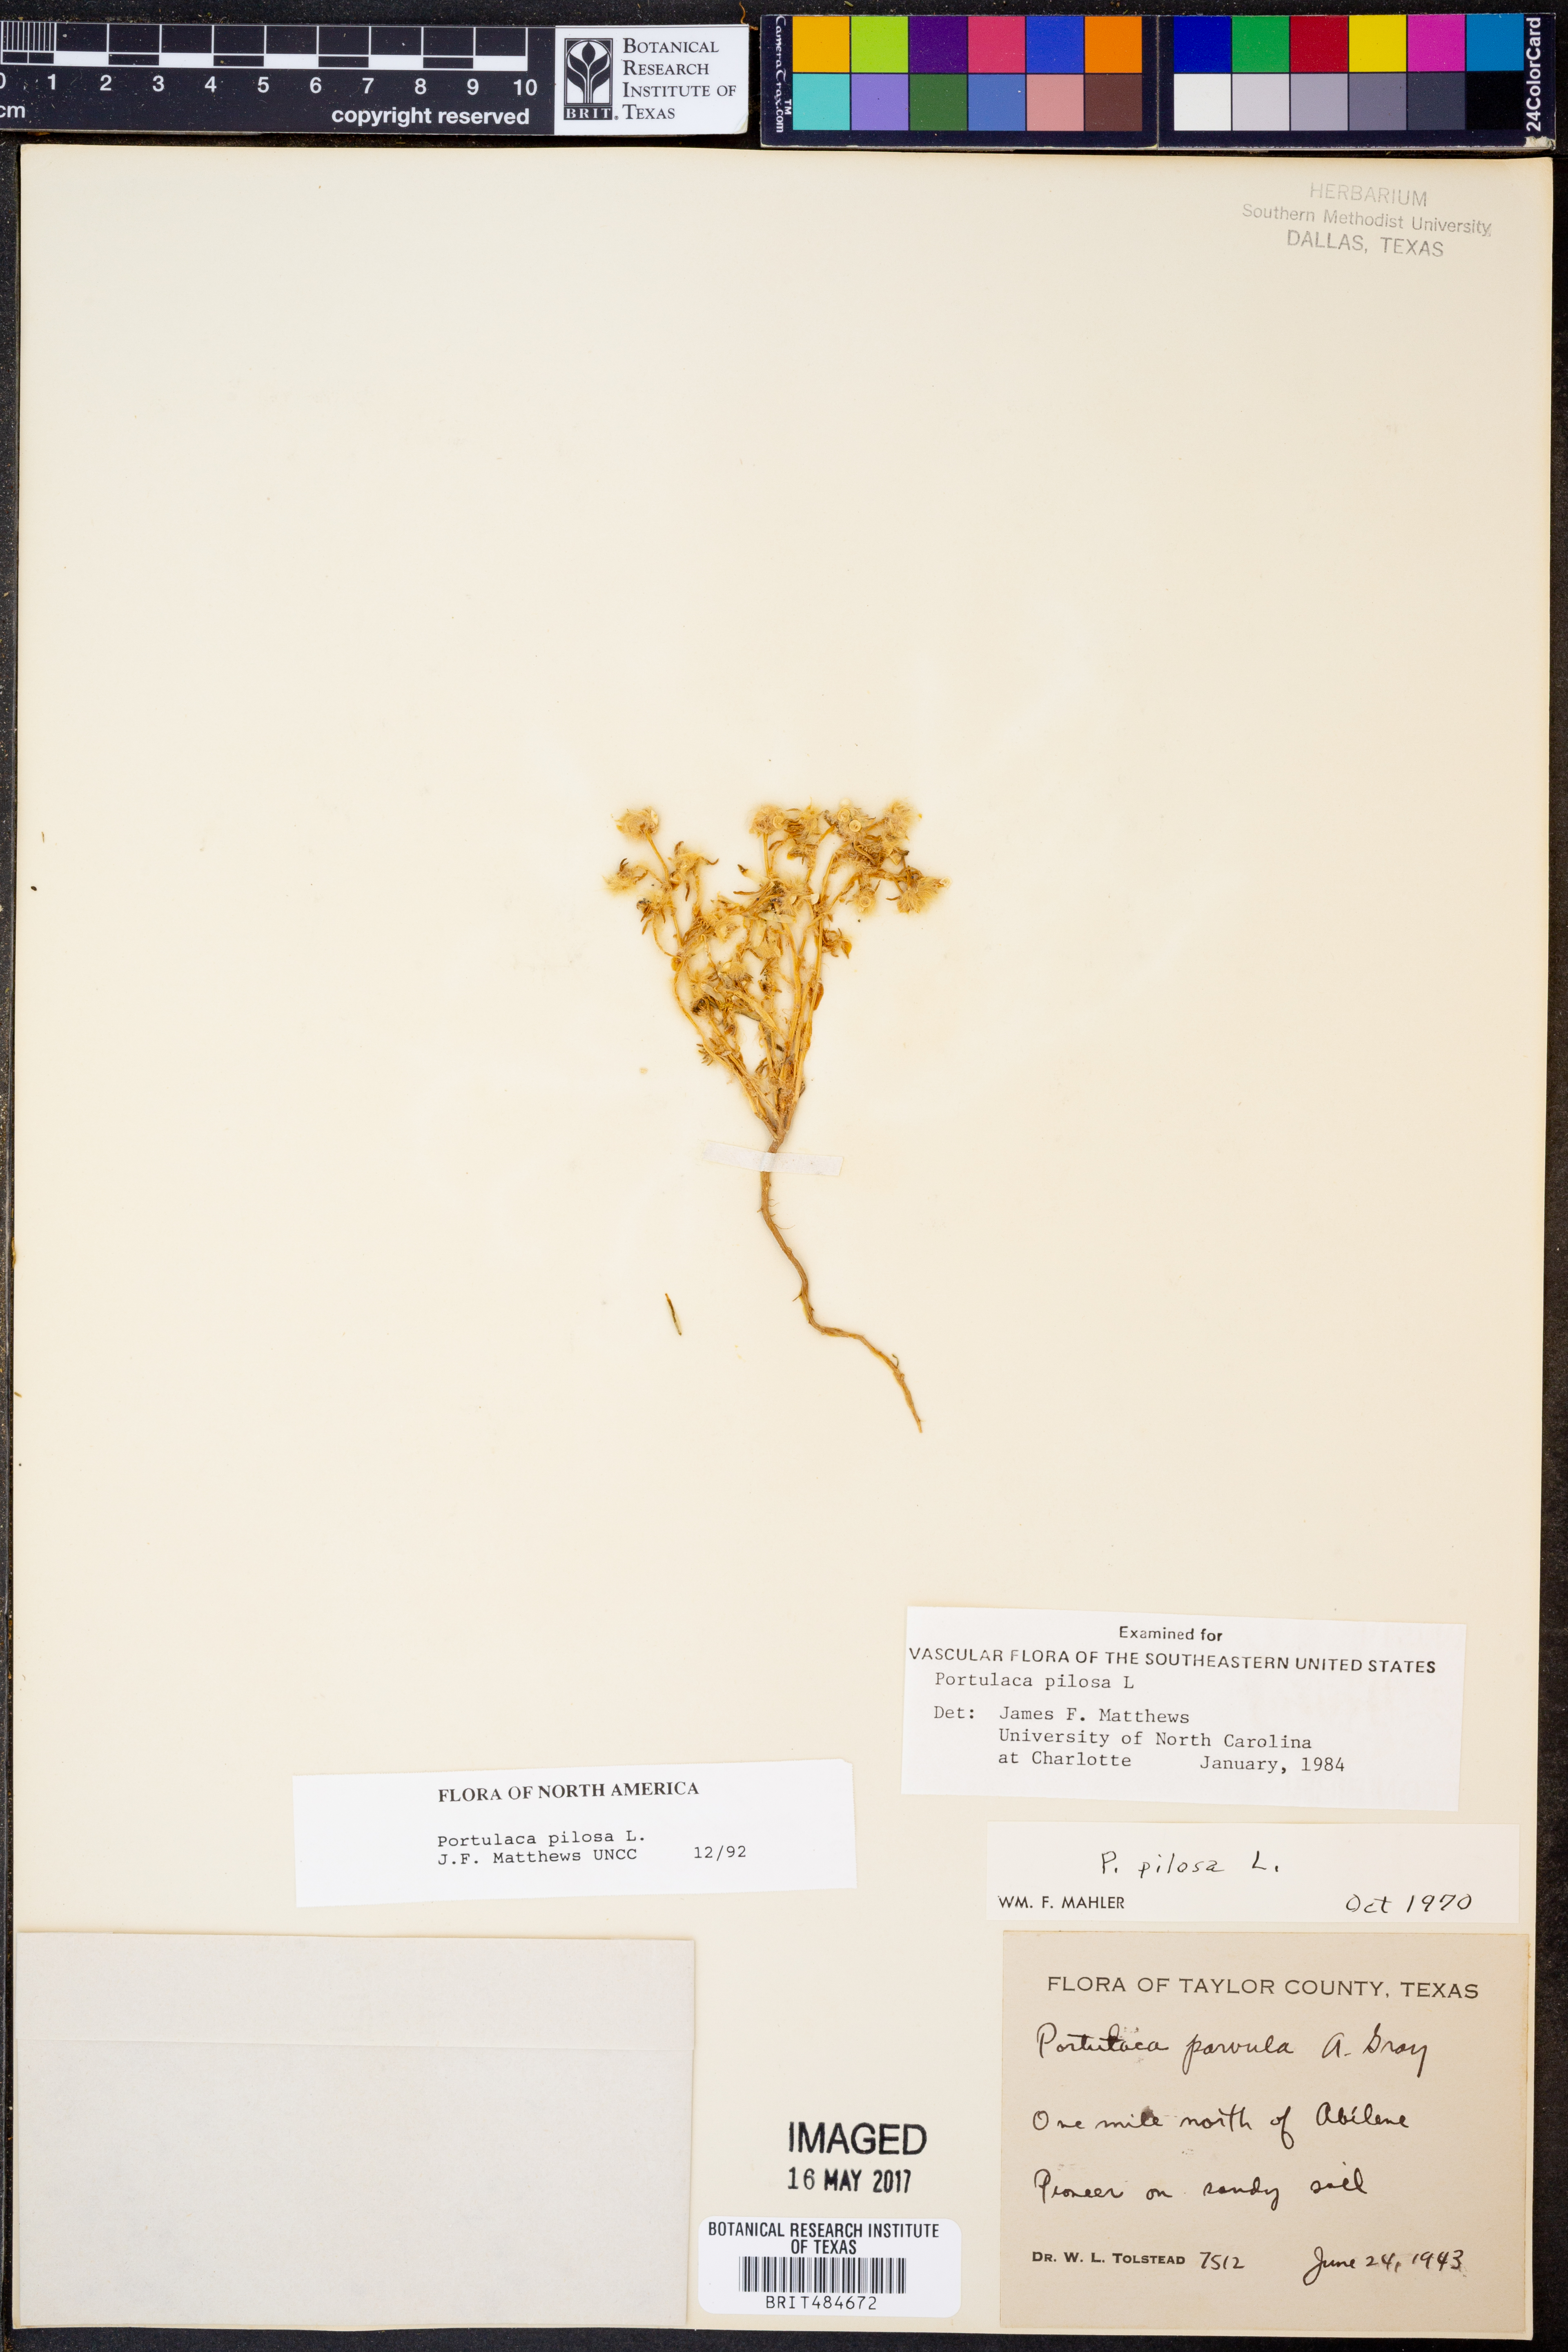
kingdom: Plantae
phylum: Tracheophyta
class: Magnoliopsida
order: Caryophyllales
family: Portulacaceae
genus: Portulaca
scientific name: Portulaca pilosa
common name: Kiss me quick
